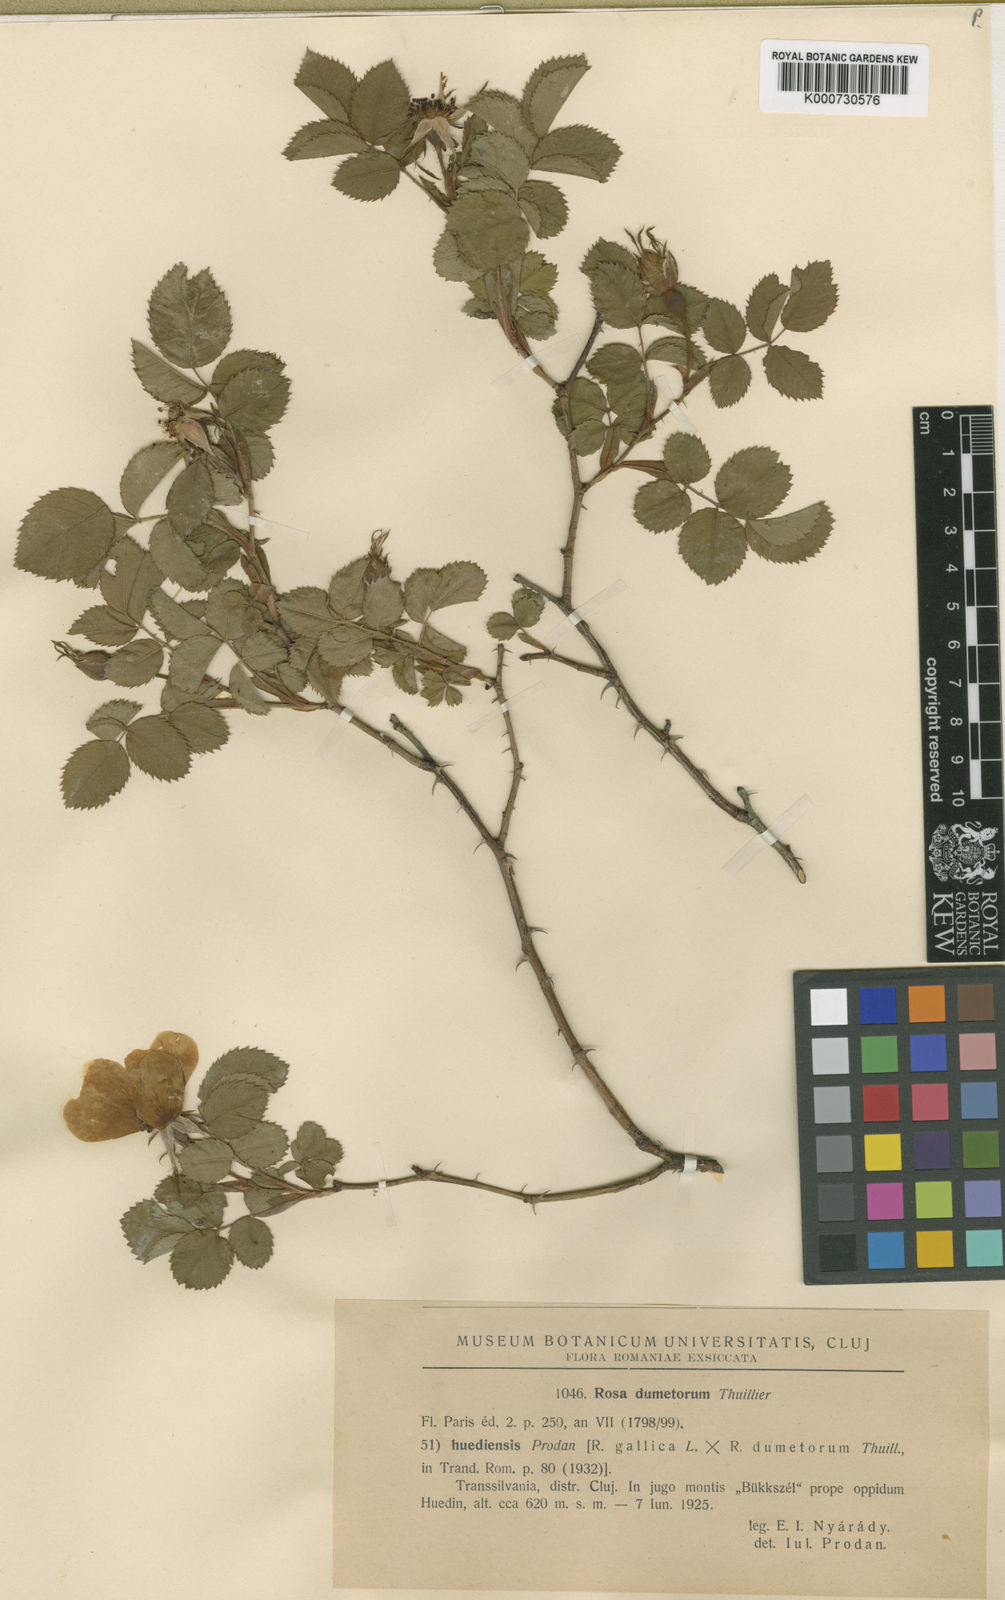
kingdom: Plantae
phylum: Tracheophyta
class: Magnoliopsida
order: Rosales
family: Rosaceae
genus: Rosa
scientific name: Rosa corymbifera
